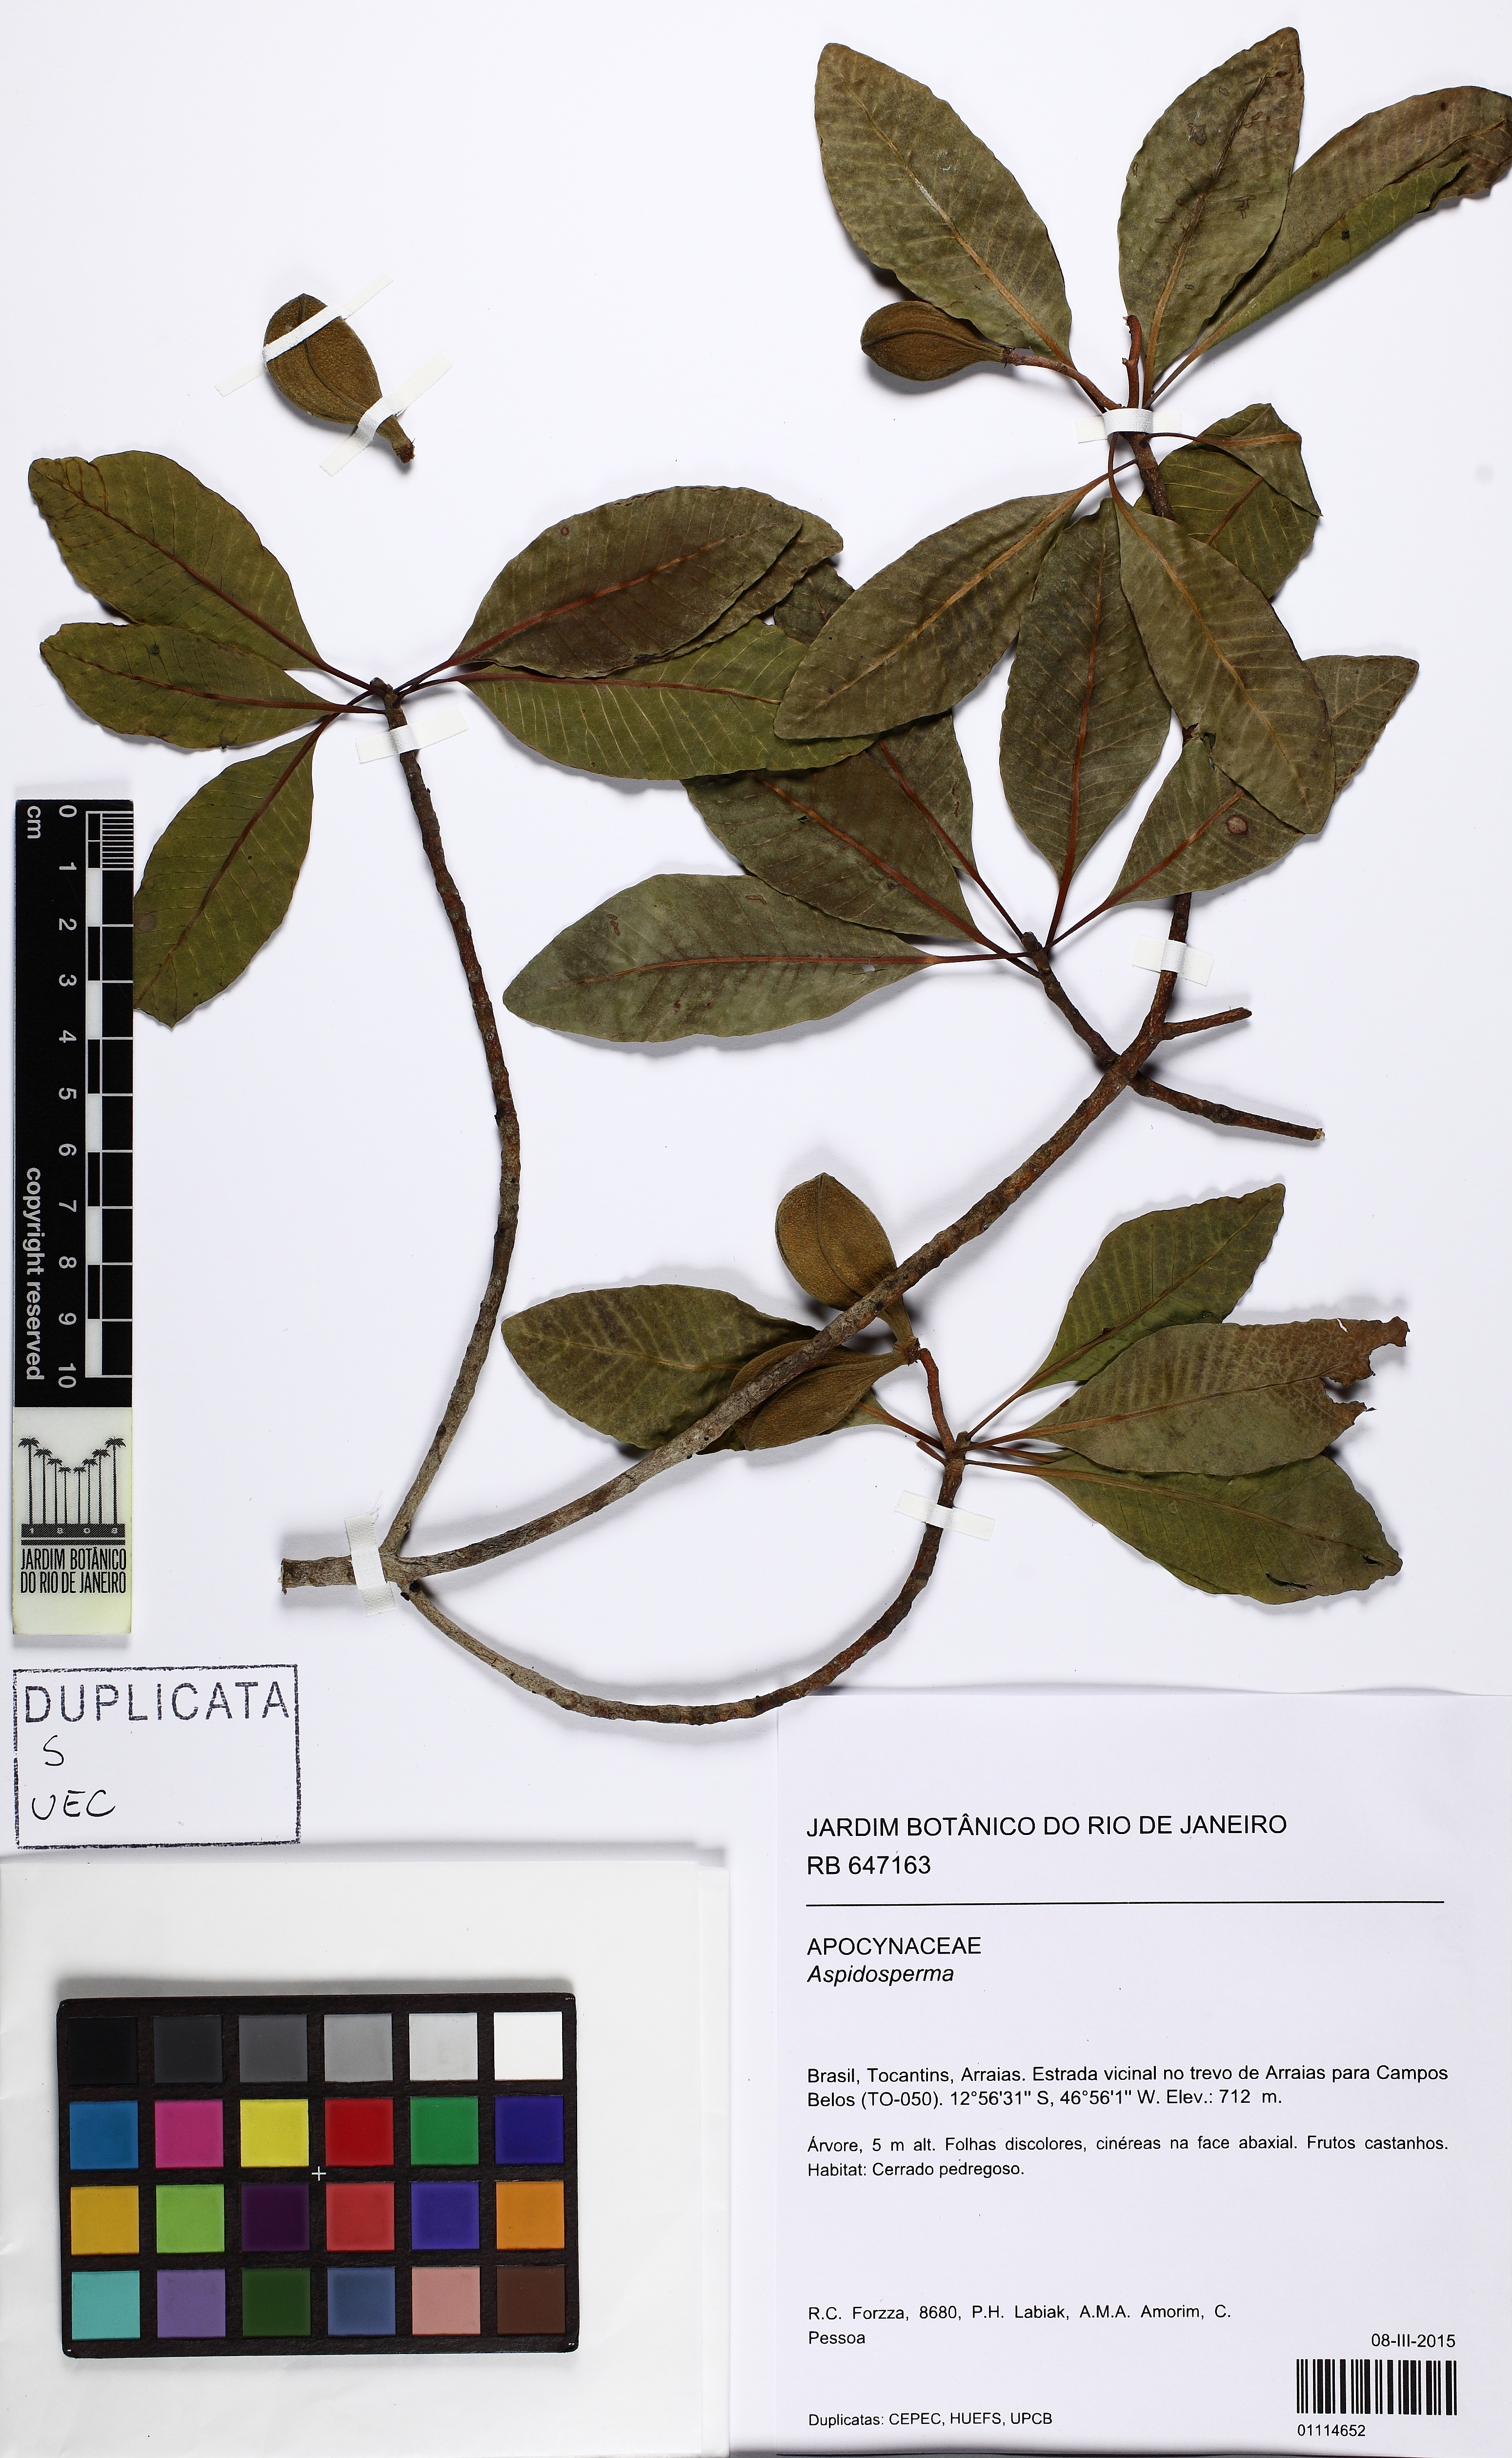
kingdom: Plantae
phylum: Tracheophyta
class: Magnoliopsida
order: Gentianales
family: Apocynaceae
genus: Aspidosperma
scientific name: Aspidosperma rizzoanum
